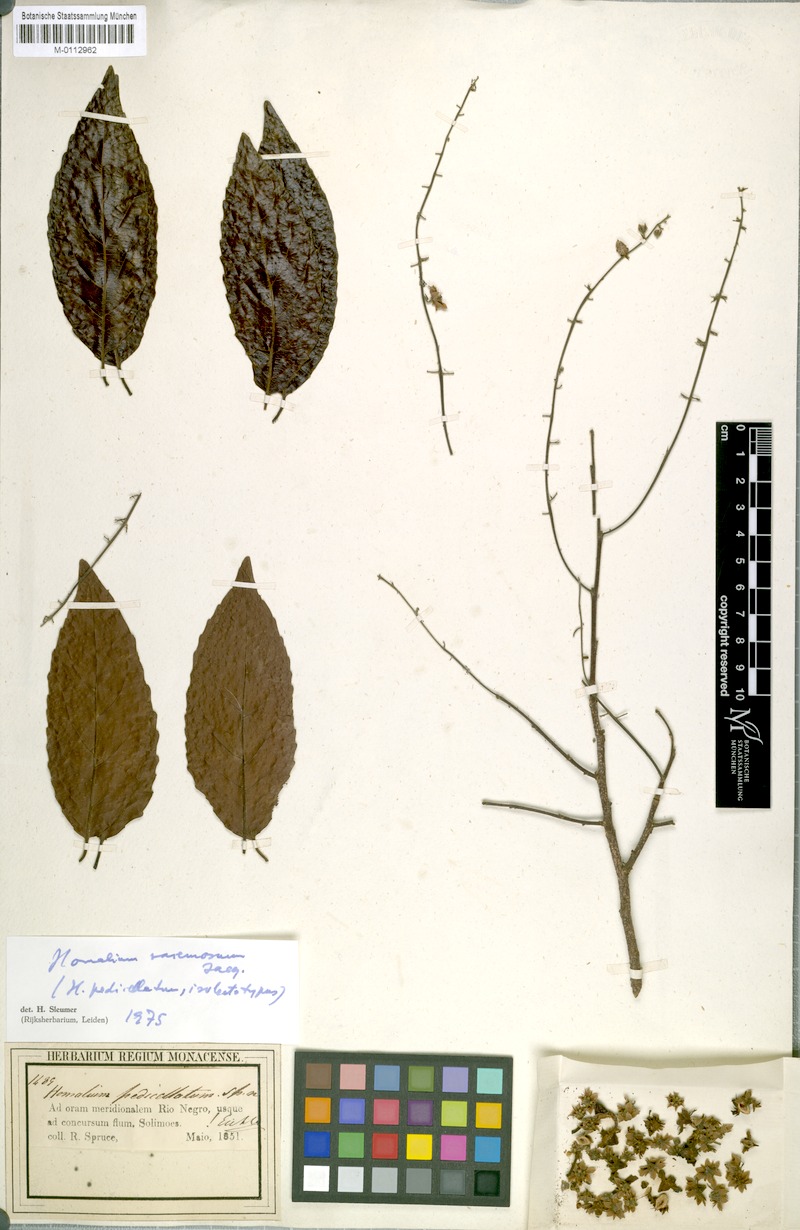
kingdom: Plantae
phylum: Tracheophyta
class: Magnoliopsida
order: Malpighiales
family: Salicaceae
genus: Homalium
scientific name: Homalium racemosum
